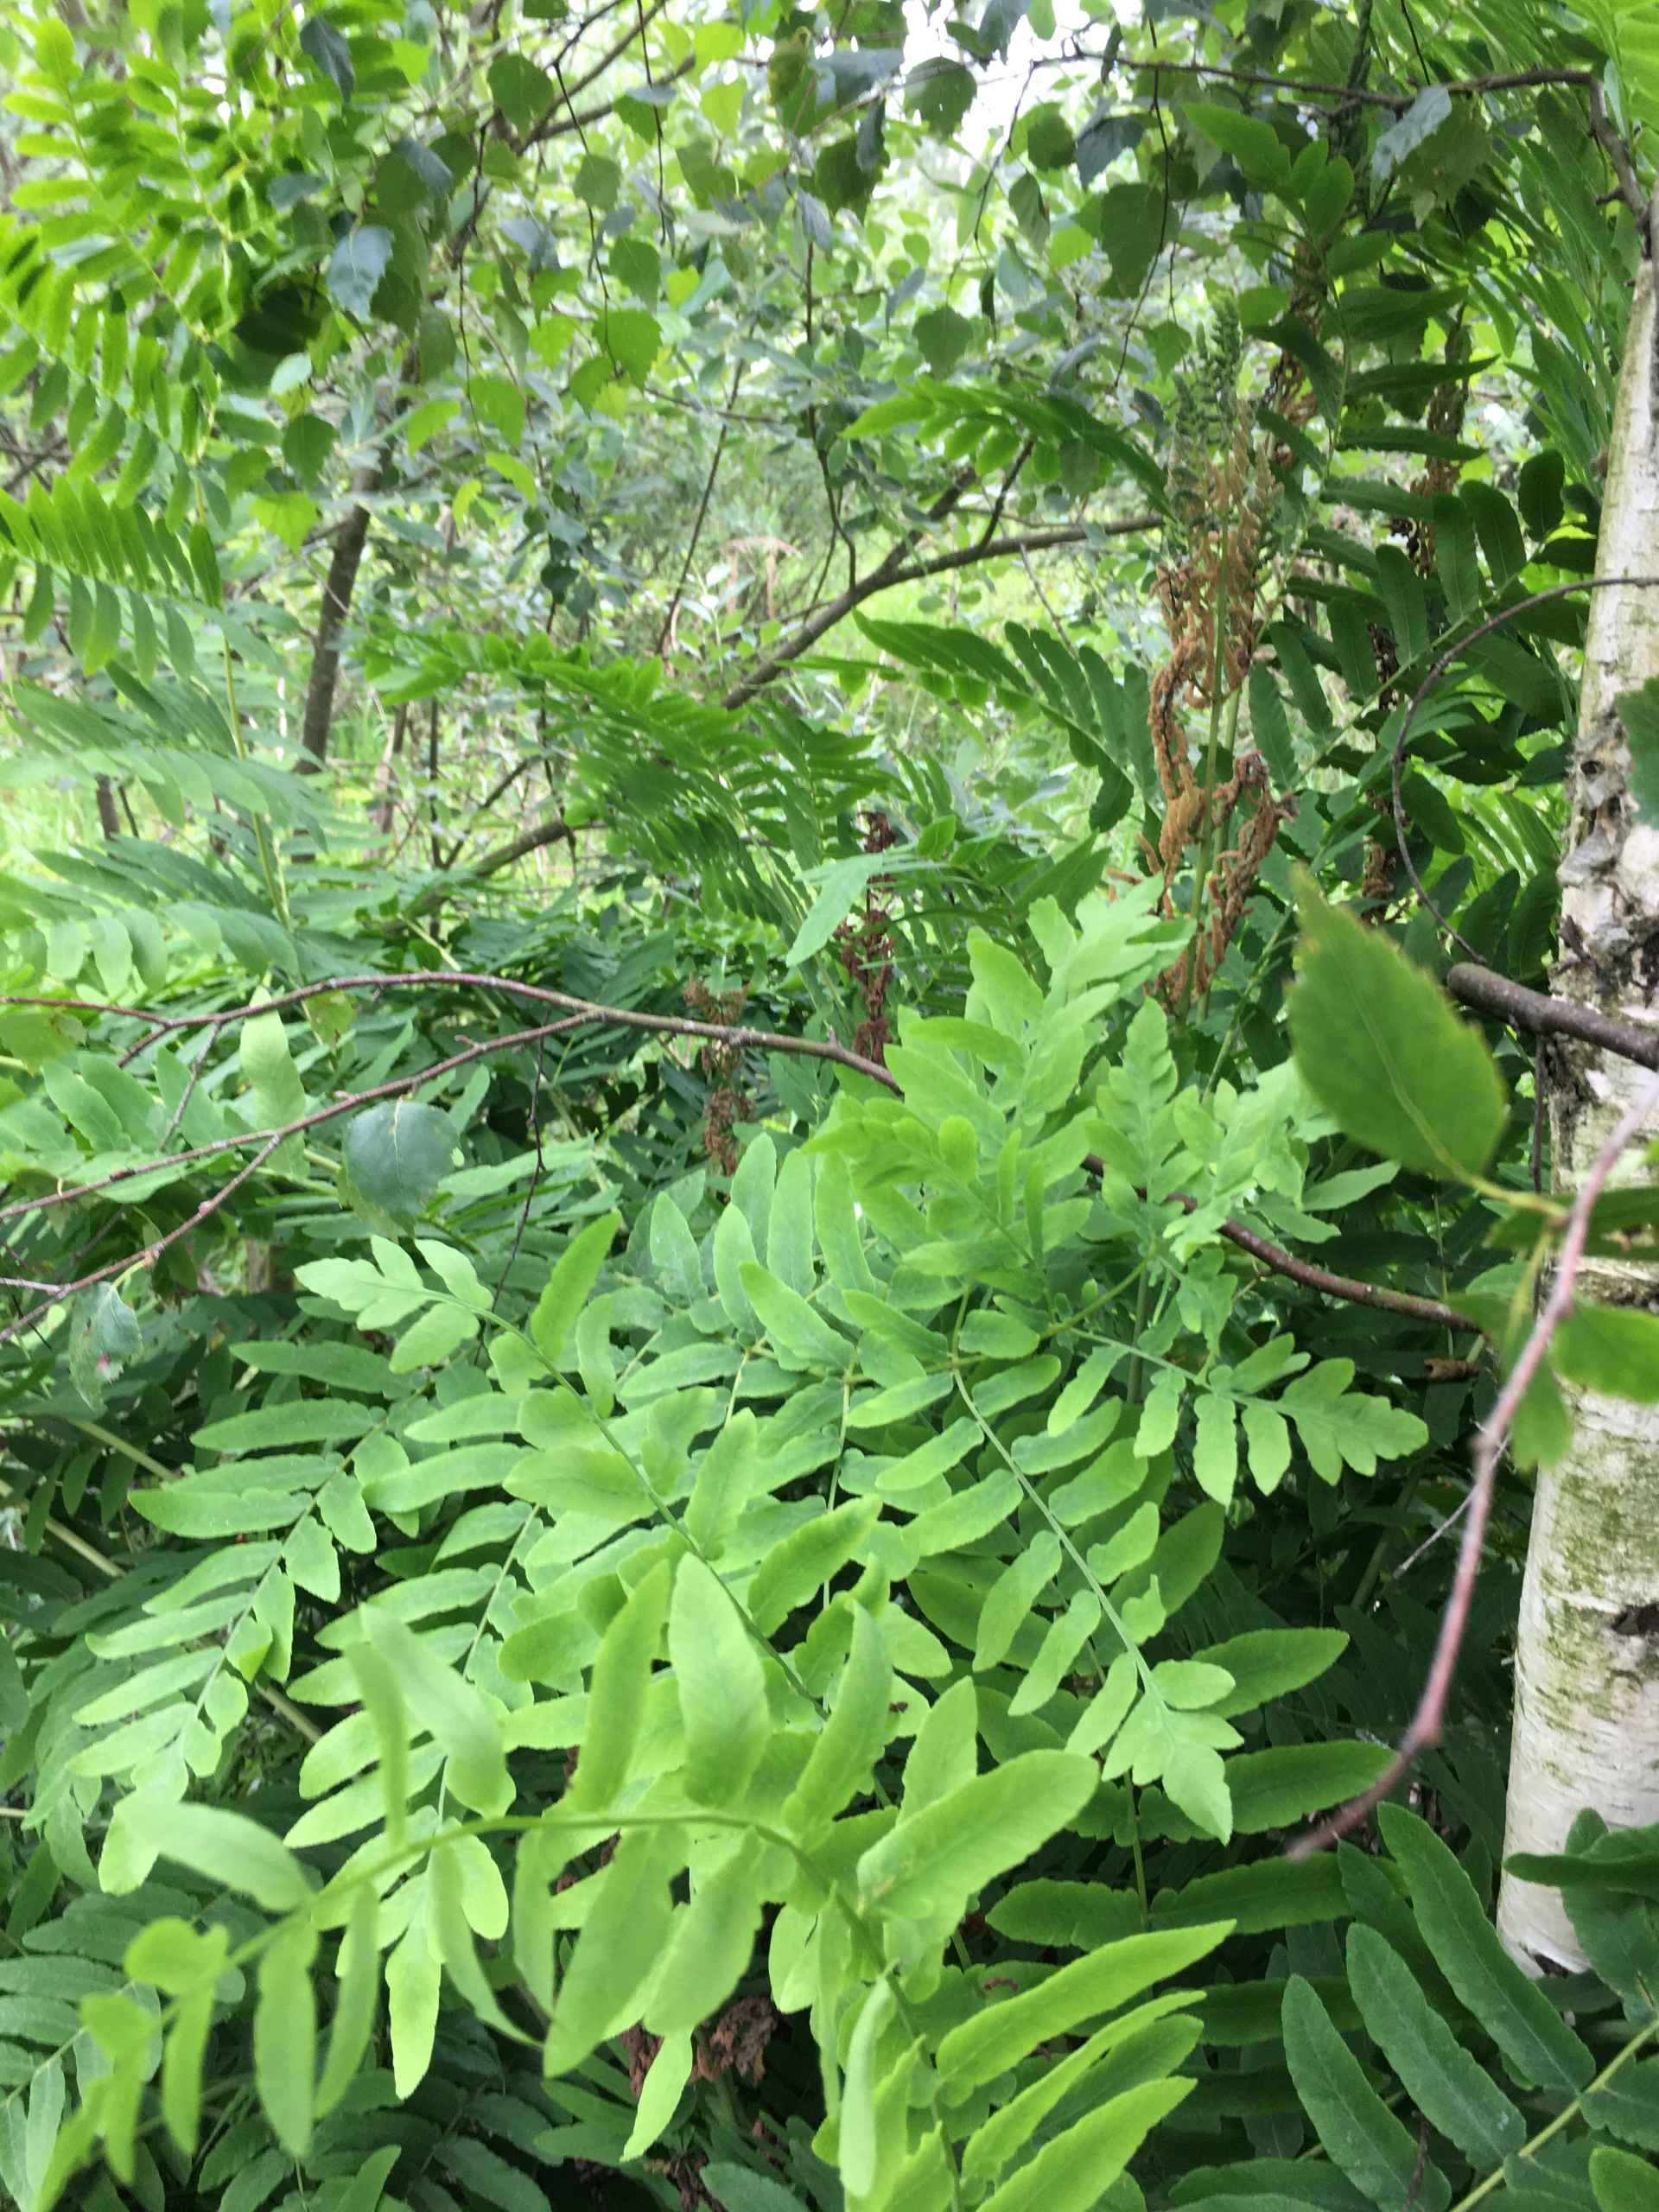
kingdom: Plantae
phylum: Tracheophyta
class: Polypodiopsida
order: Osmundales
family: Osmundaceae
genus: Osmunda
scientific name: Osmunda regalis
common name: Kongebregne
